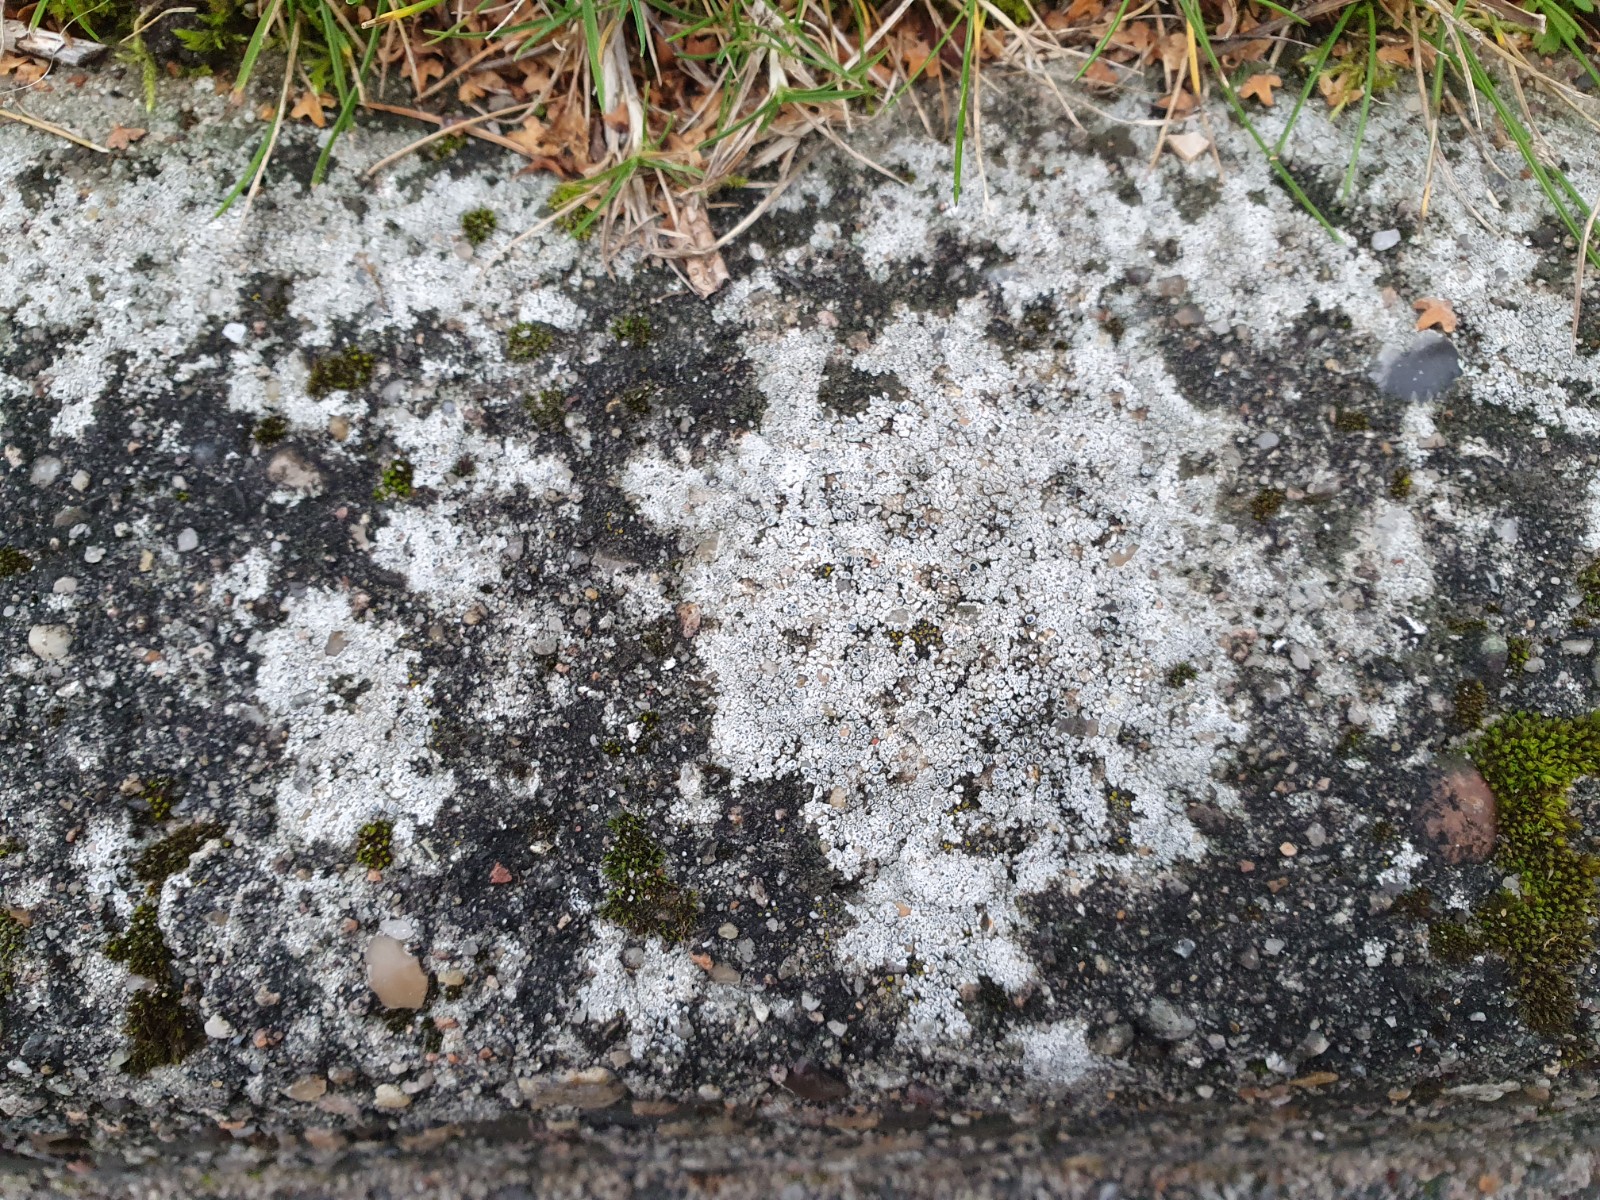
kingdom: Fungi
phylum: Ascomycota
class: Lecanoromycetes
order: Pertusariales
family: Megasporaceae
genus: Circinaria
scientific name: Circinaria contorta
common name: indviklet hulskivelav
